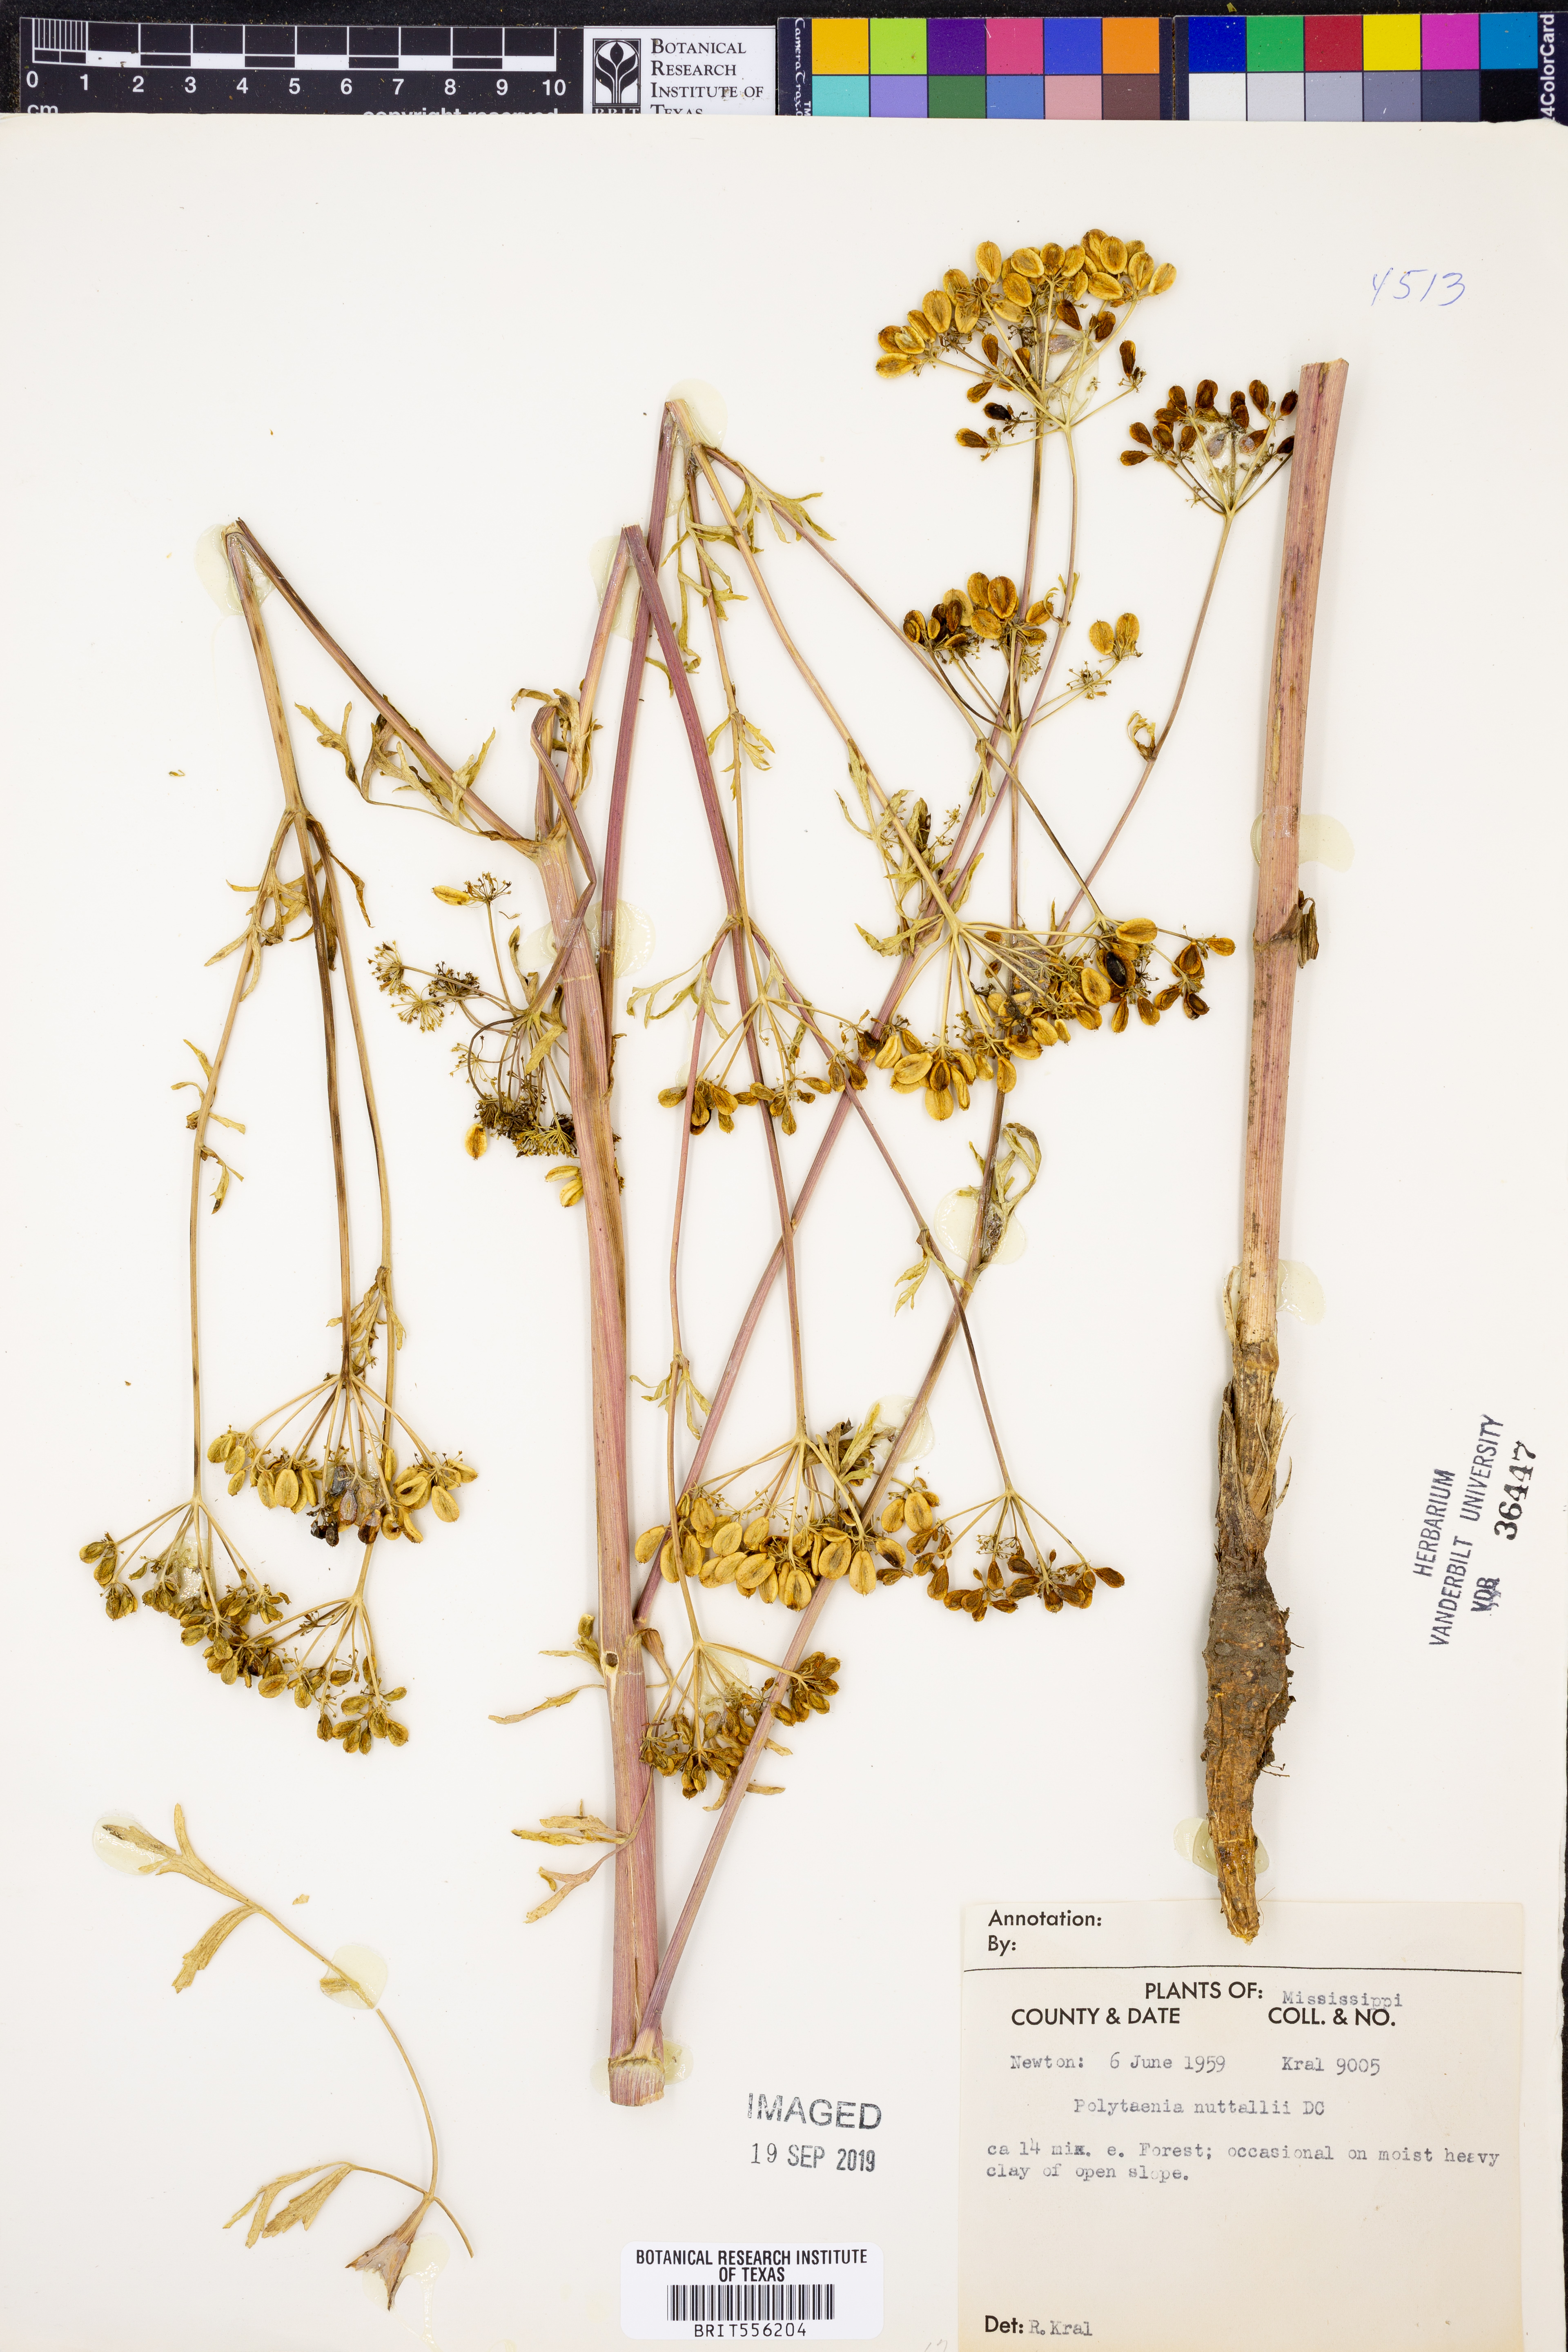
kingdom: Plantae
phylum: Tracheophyta
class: Magnoliopsida
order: Apiales
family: Apiaceae
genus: Polytaenia
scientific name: Polytaenia nuttallii
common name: Prairie-parsley
